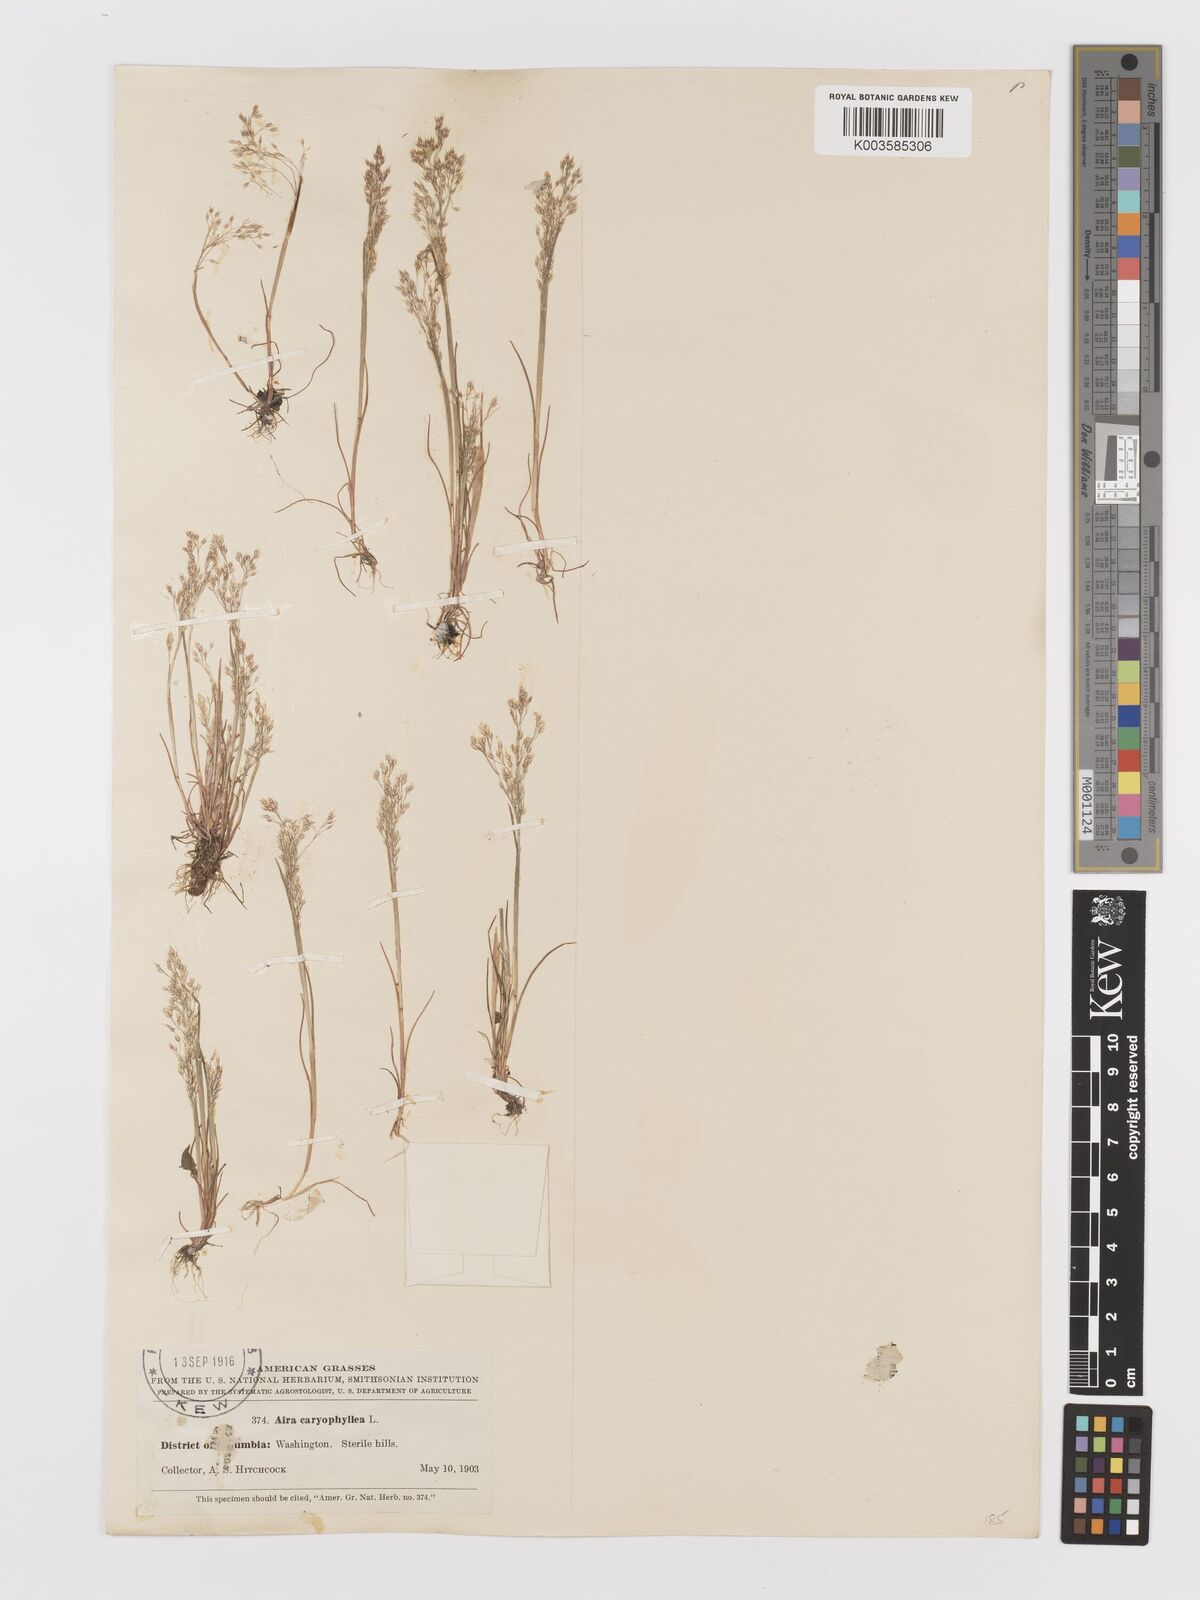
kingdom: Plantae
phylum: Tracheophyta
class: Liliopsida
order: Poales
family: Poaceae
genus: Aira
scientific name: Aira caryophyllea
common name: Silver hairgrass
